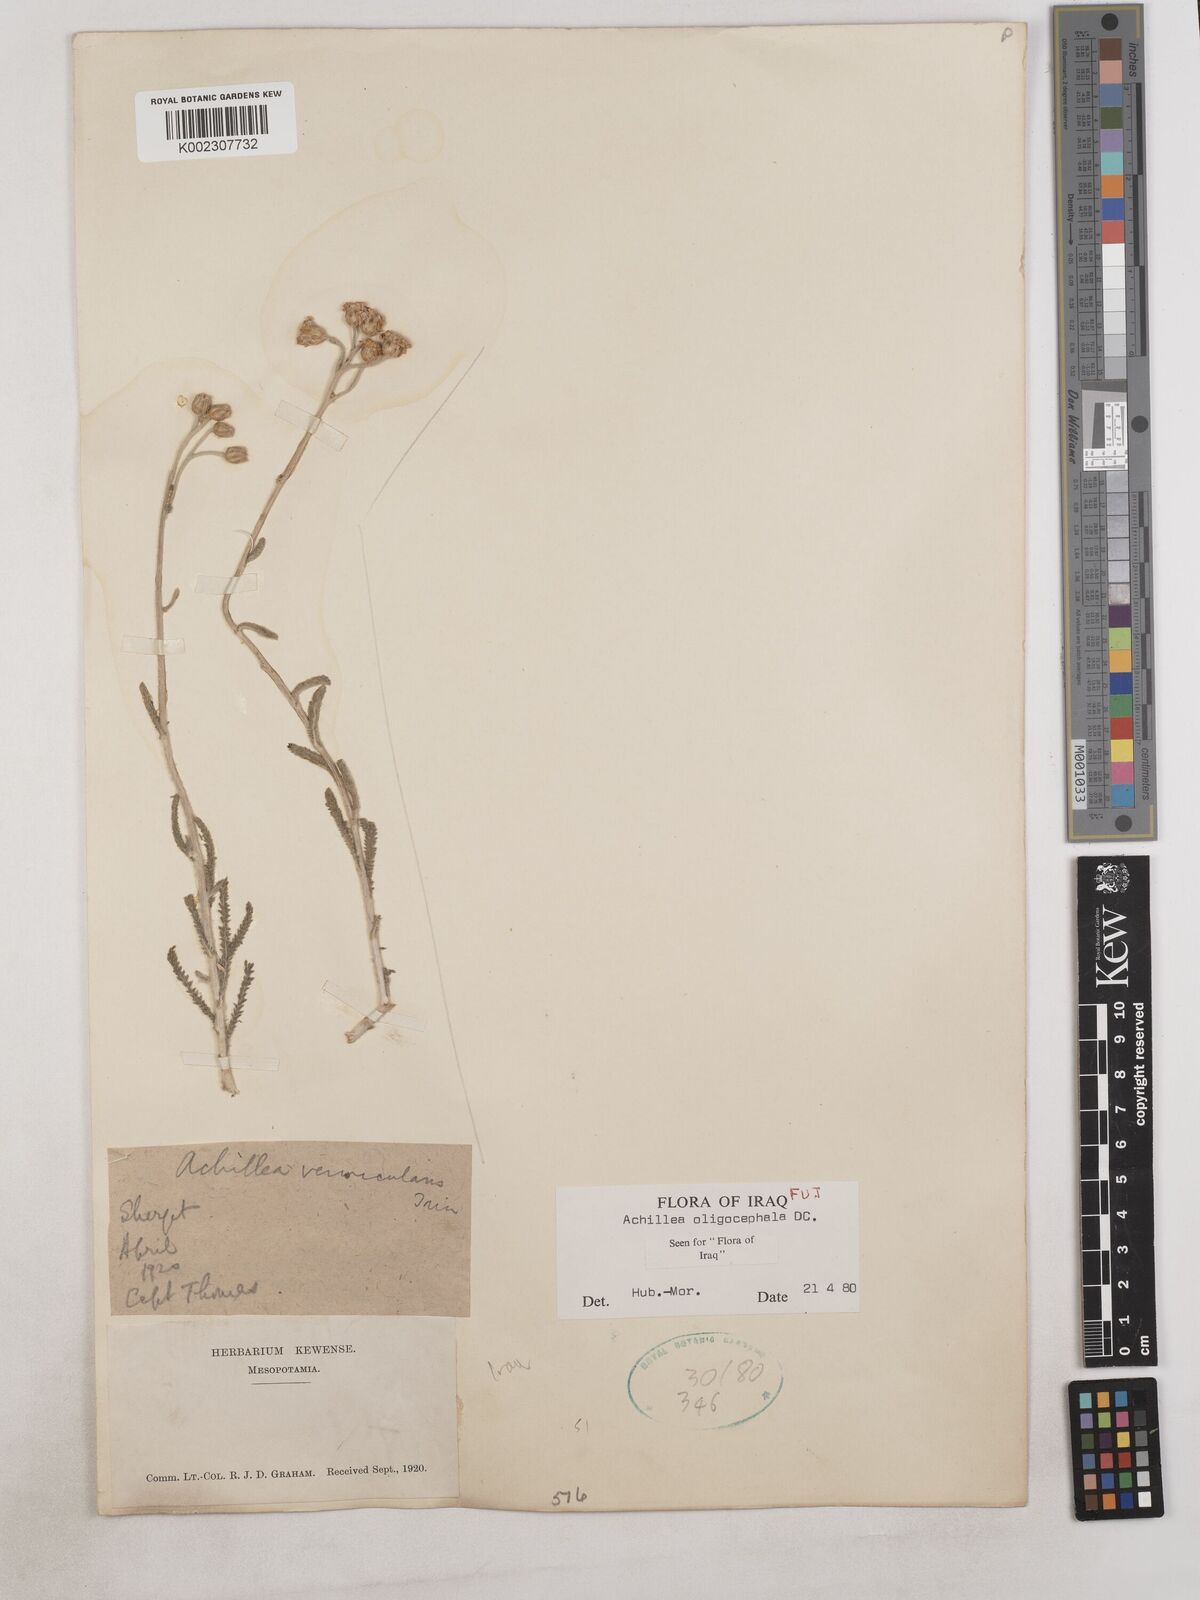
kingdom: Plantae
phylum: Tracheophyta
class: Magnoliopsida
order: Asterales
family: Asteraceae
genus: Achillea
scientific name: Achillea oligocephala
